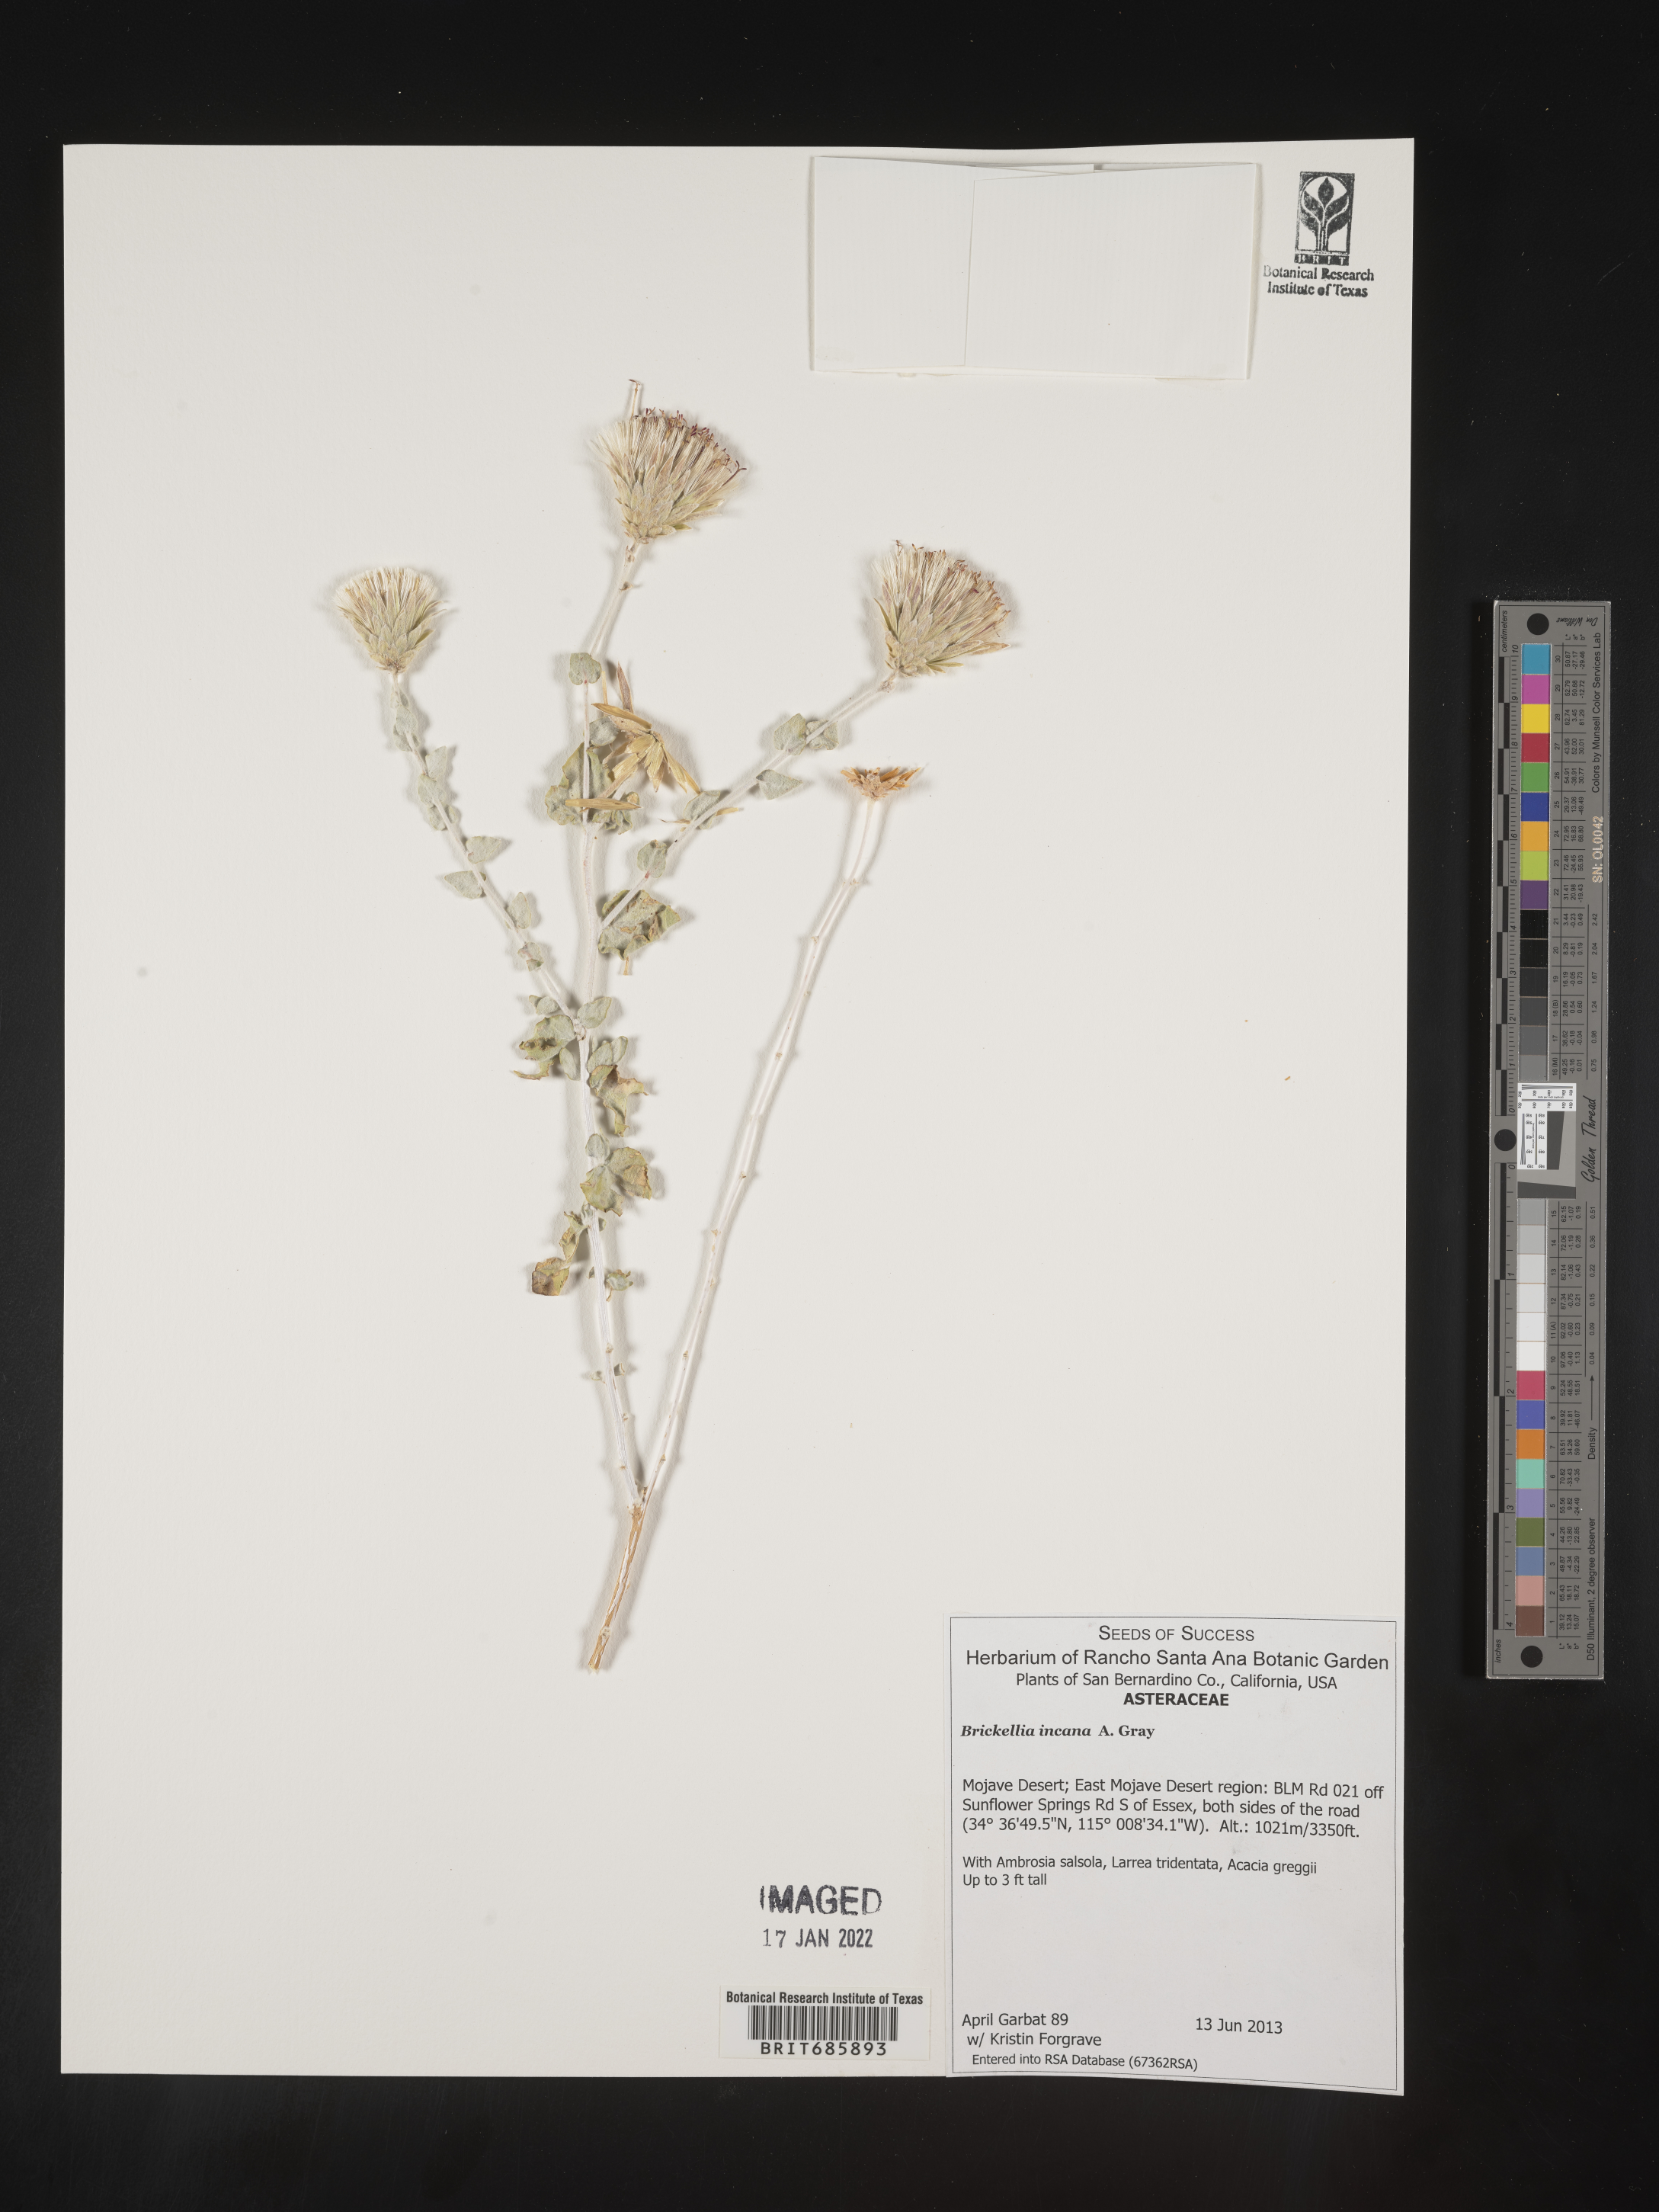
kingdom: Plantae
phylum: Tracheophyta
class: Magnoliopsida
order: Asterales
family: Asteraceae
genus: Brickellia
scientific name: Brickellia incana
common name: Woolly brickelbush
